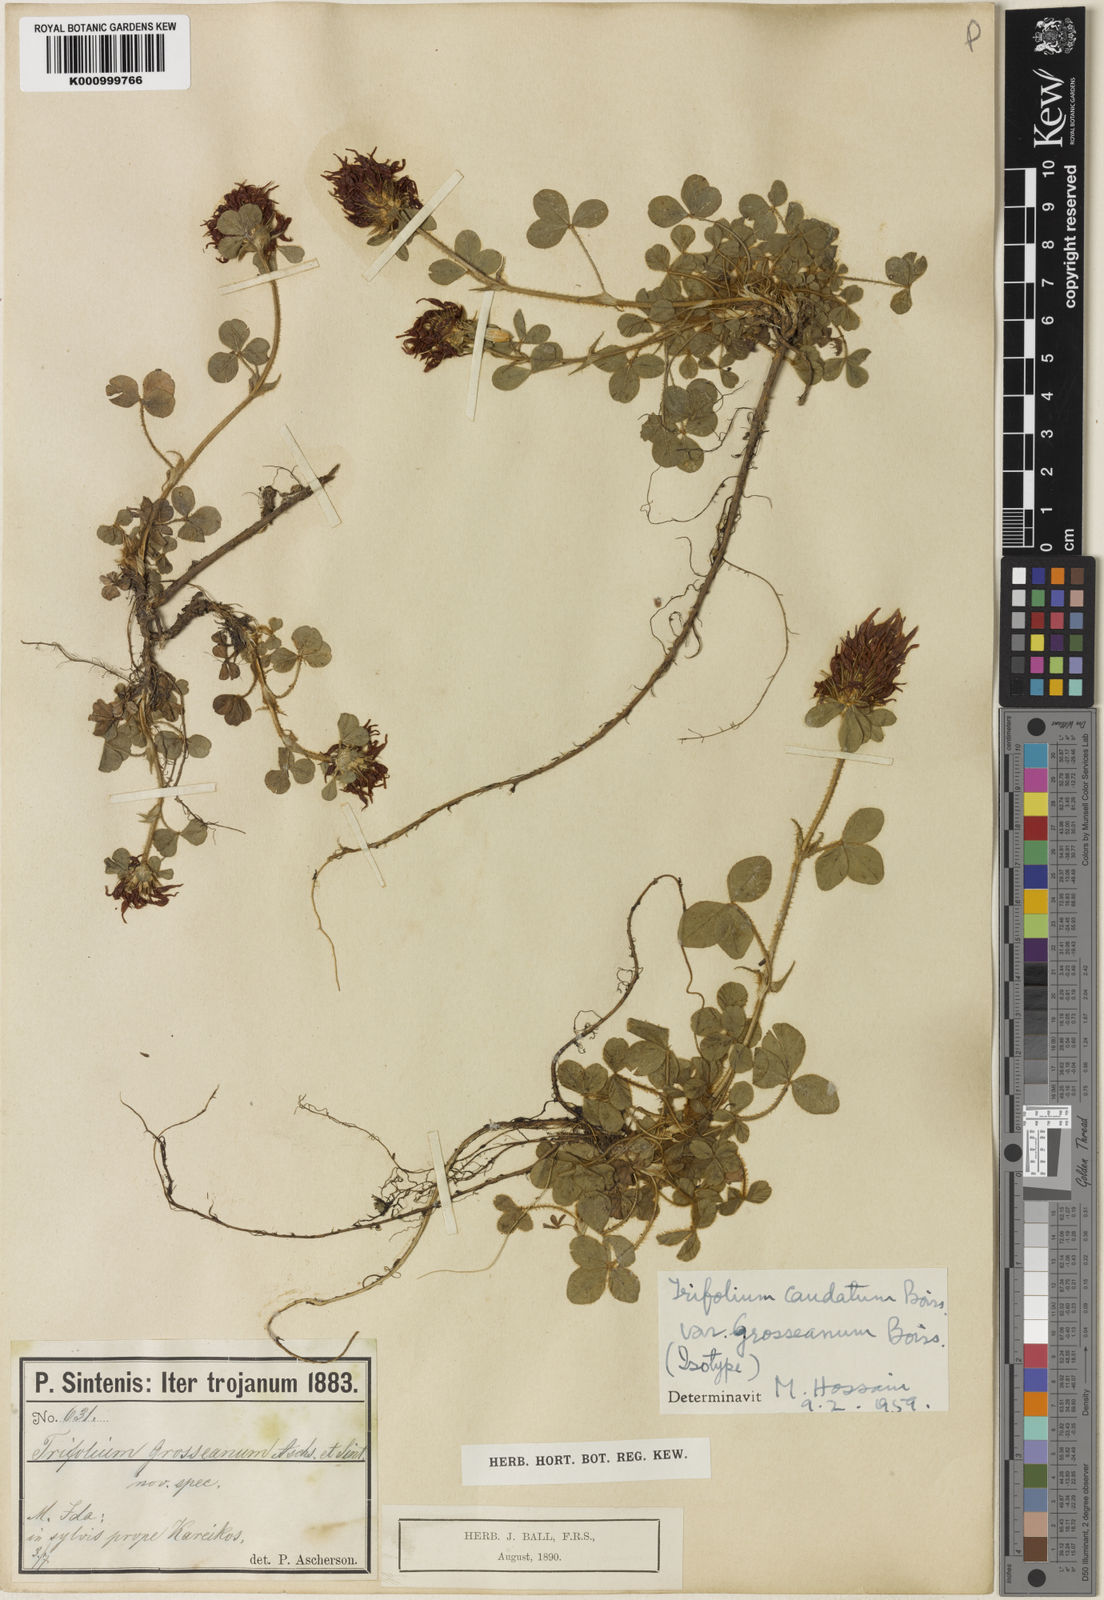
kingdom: Plantae
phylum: Tracheophyta
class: Magnoliopsida
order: Fabales
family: Fabaceae
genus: Trifolium
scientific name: Trifolium caudatum
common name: Tailed clover
